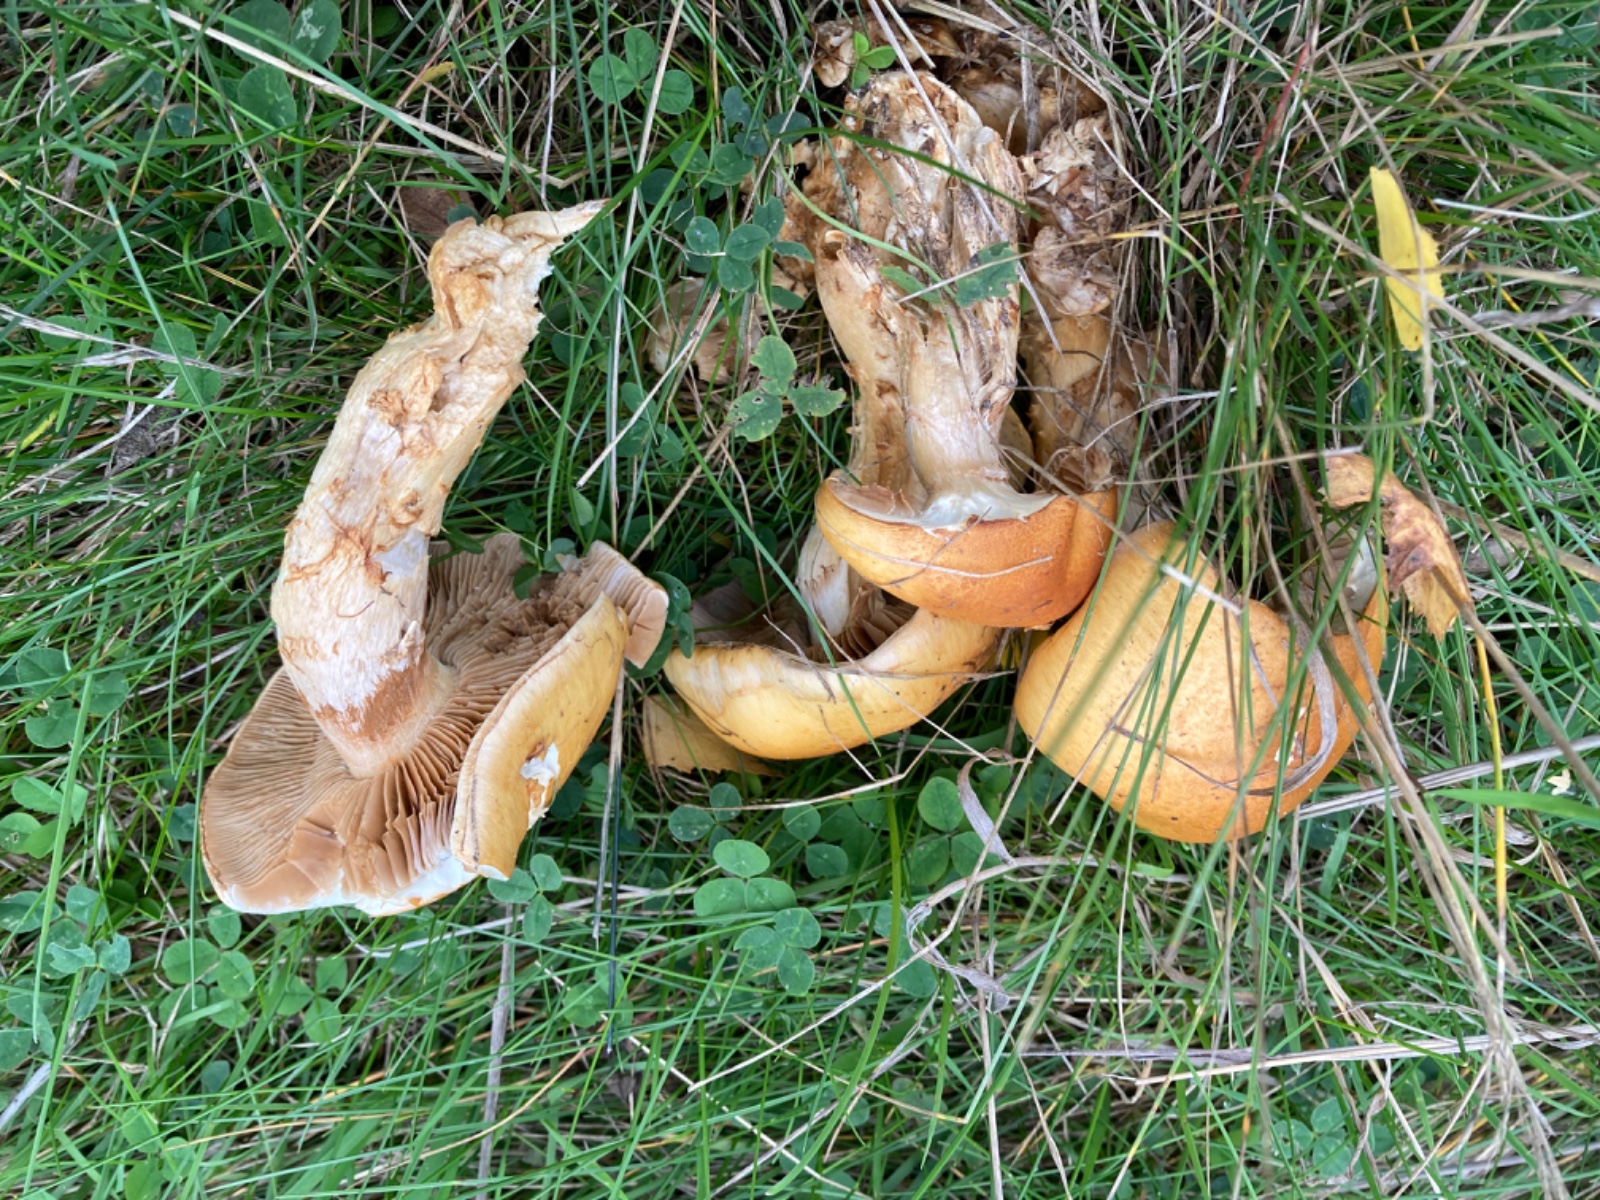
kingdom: Fungi
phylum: Basidiomycota
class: Agaricomycetes
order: Agaricales
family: Cortinariaceae
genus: Phlegmacium
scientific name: Phlegmacium triumphans
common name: gulbæltet slørhat
